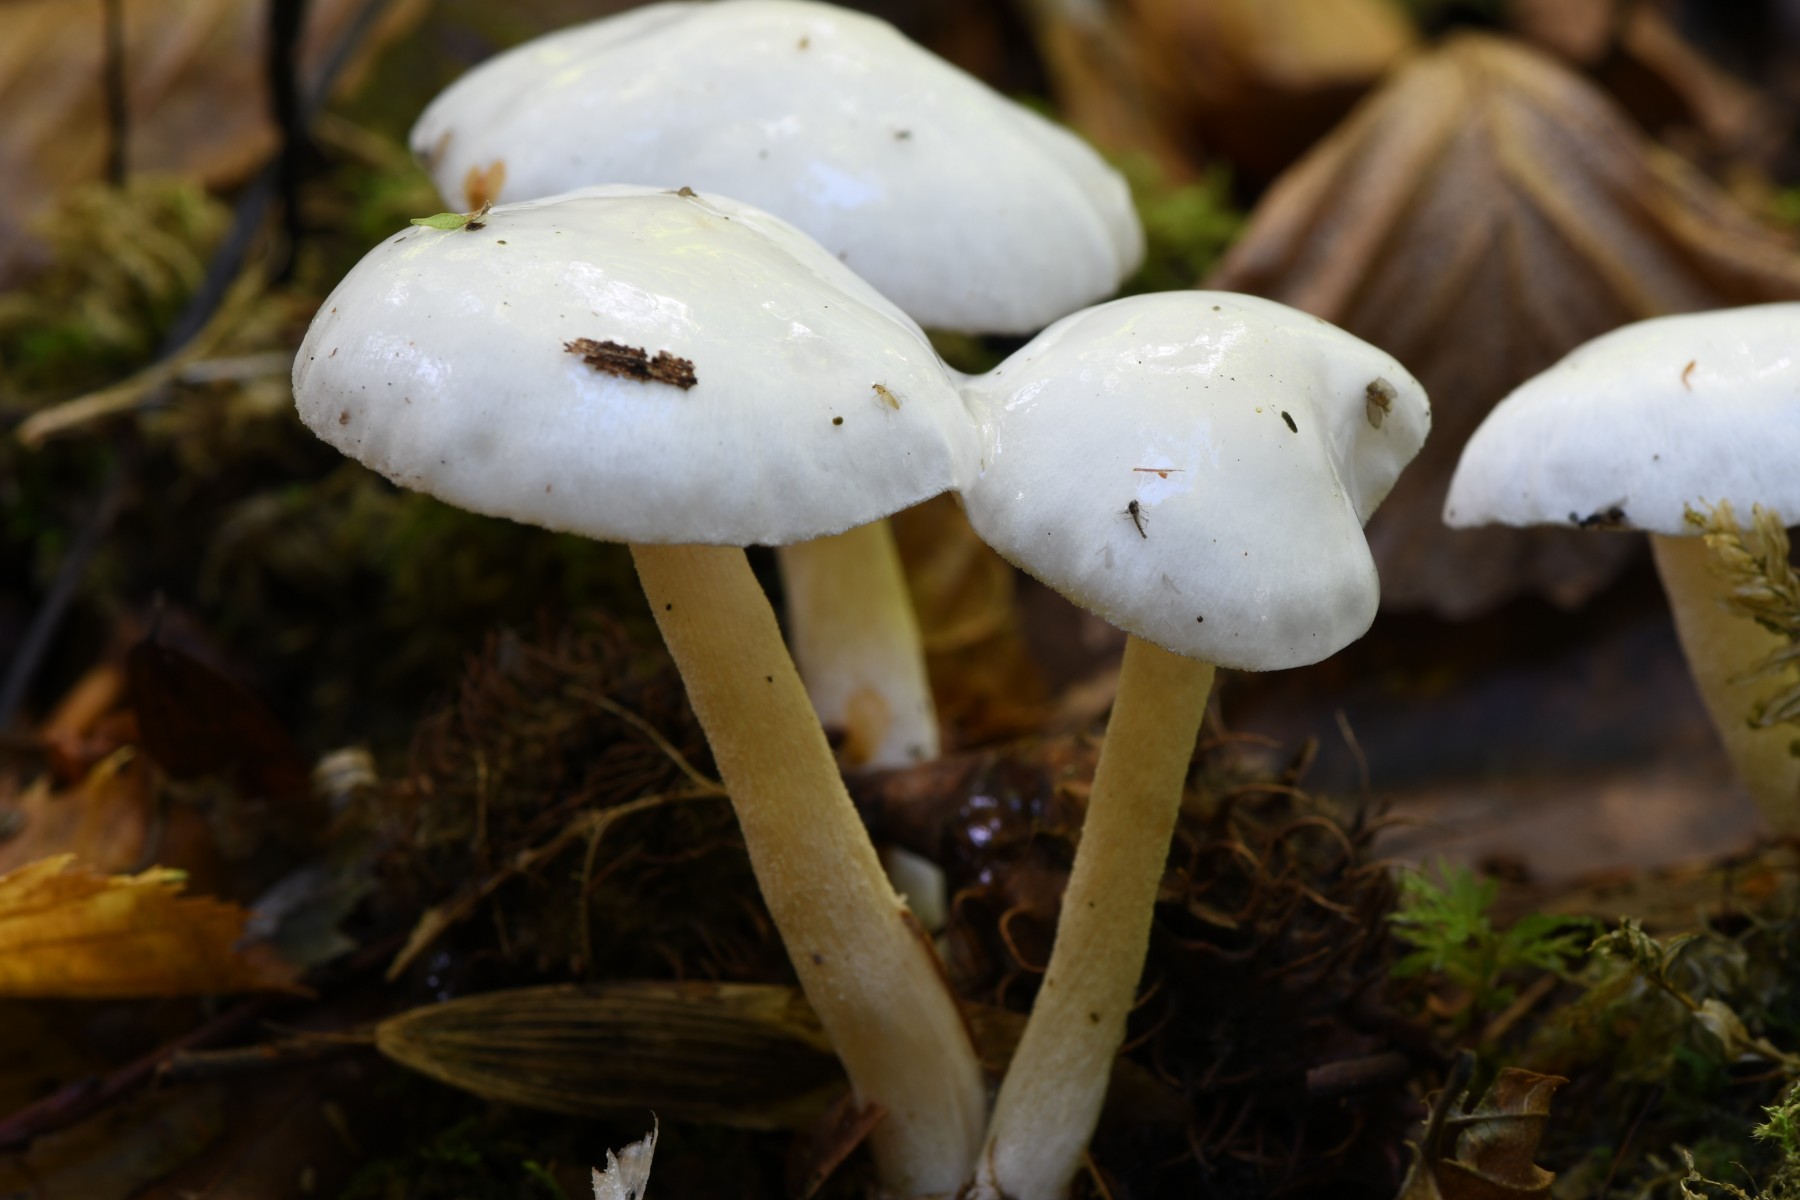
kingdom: Fungi
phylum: Basidiomycota
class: Agaricomycetes
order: Agaricales
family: Hygrophoraceae
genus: Hygrophorus
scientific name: Hygrophorus
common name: sneglehat
